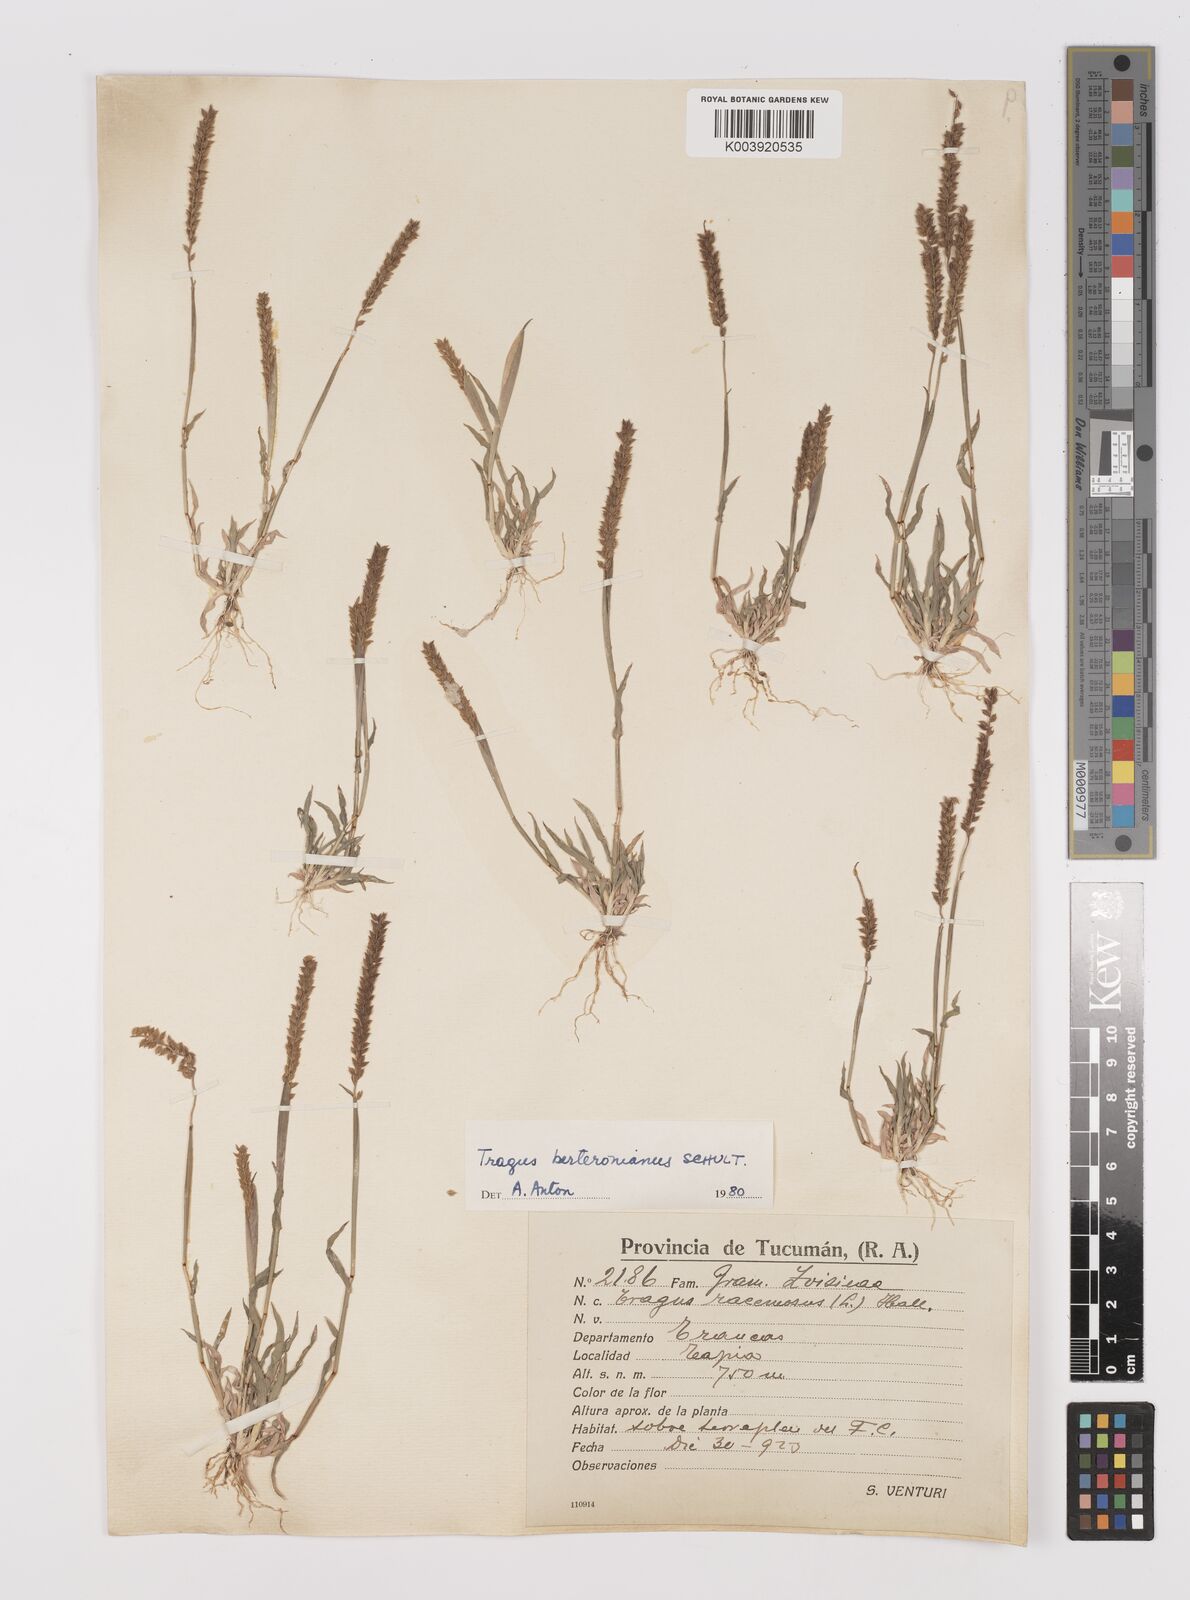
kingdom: Plantae
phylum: Tracheophyta
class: Liliopsida
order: Poales
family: Poaceae
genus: Tragus
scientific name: Tragus berteronianus
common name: African bur-grass
